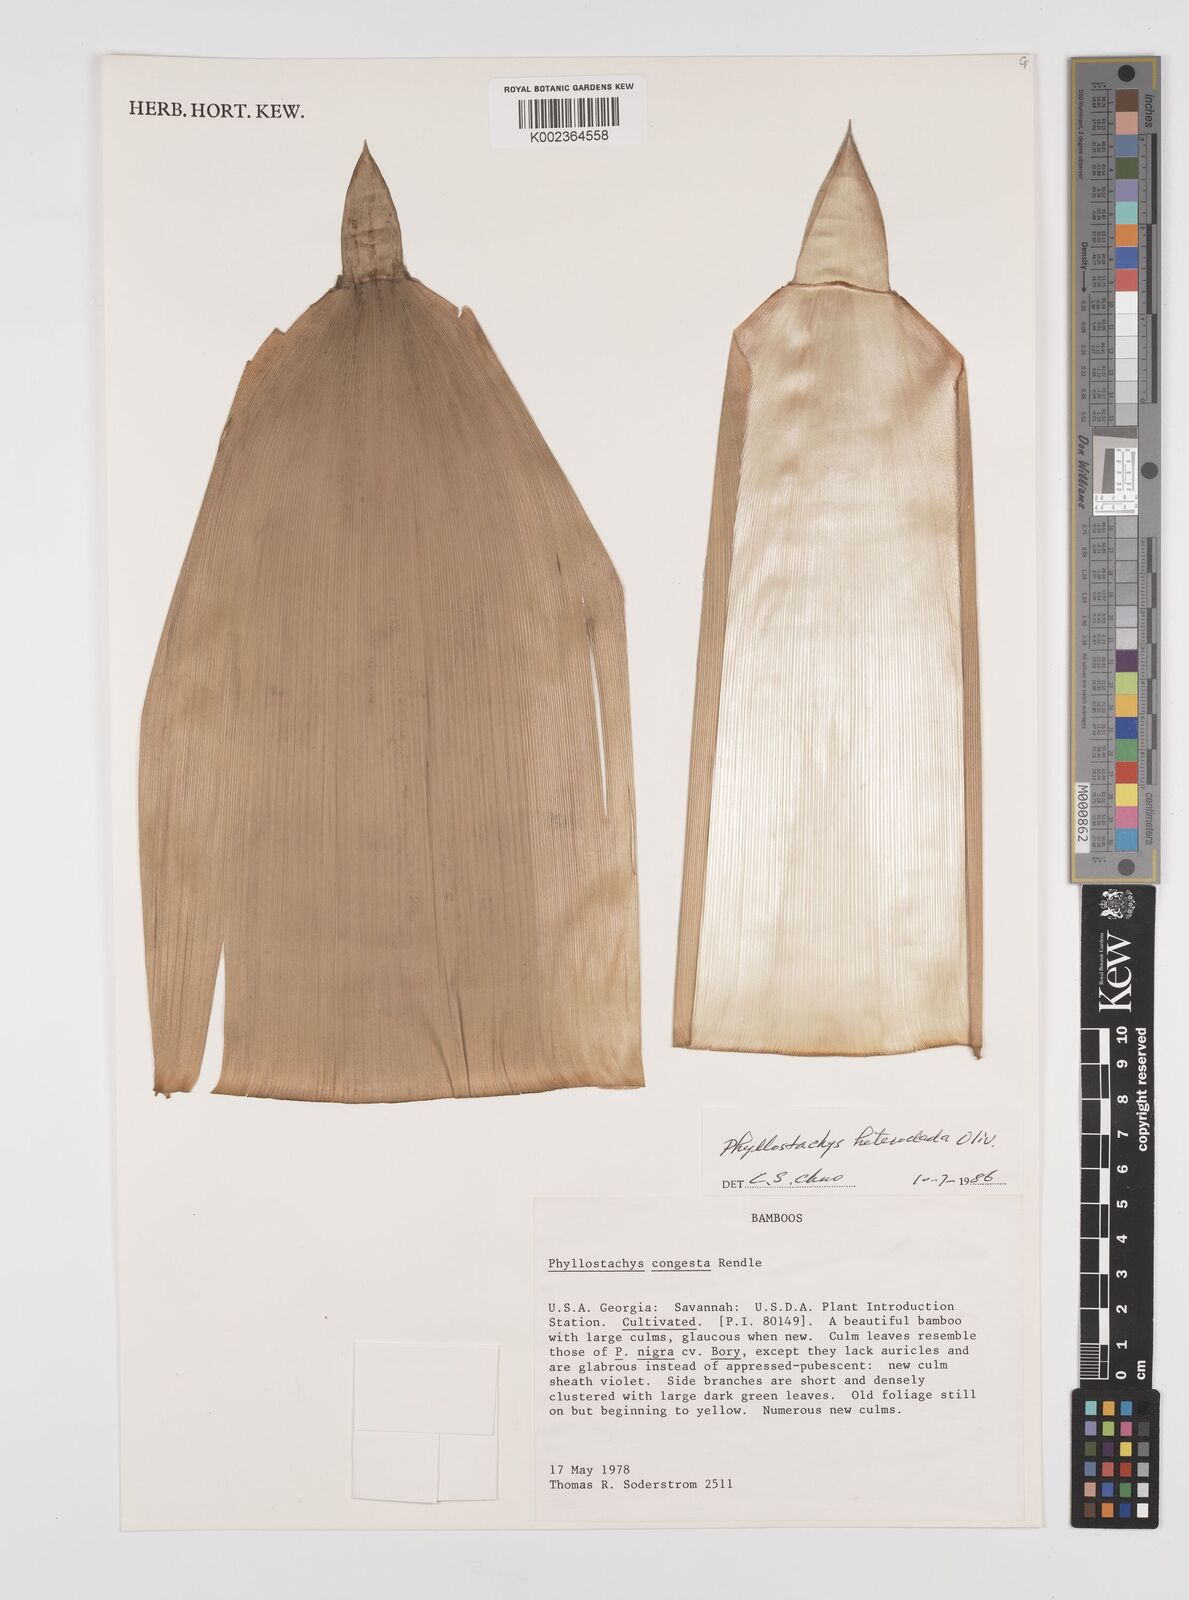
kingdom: Plantae
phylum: Tracheophyta
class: Liliopsida
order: Poales
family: Poaceae
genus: Phyllostachys
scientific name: Phyllostachys heteroclada
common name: Fishscale bamboo
